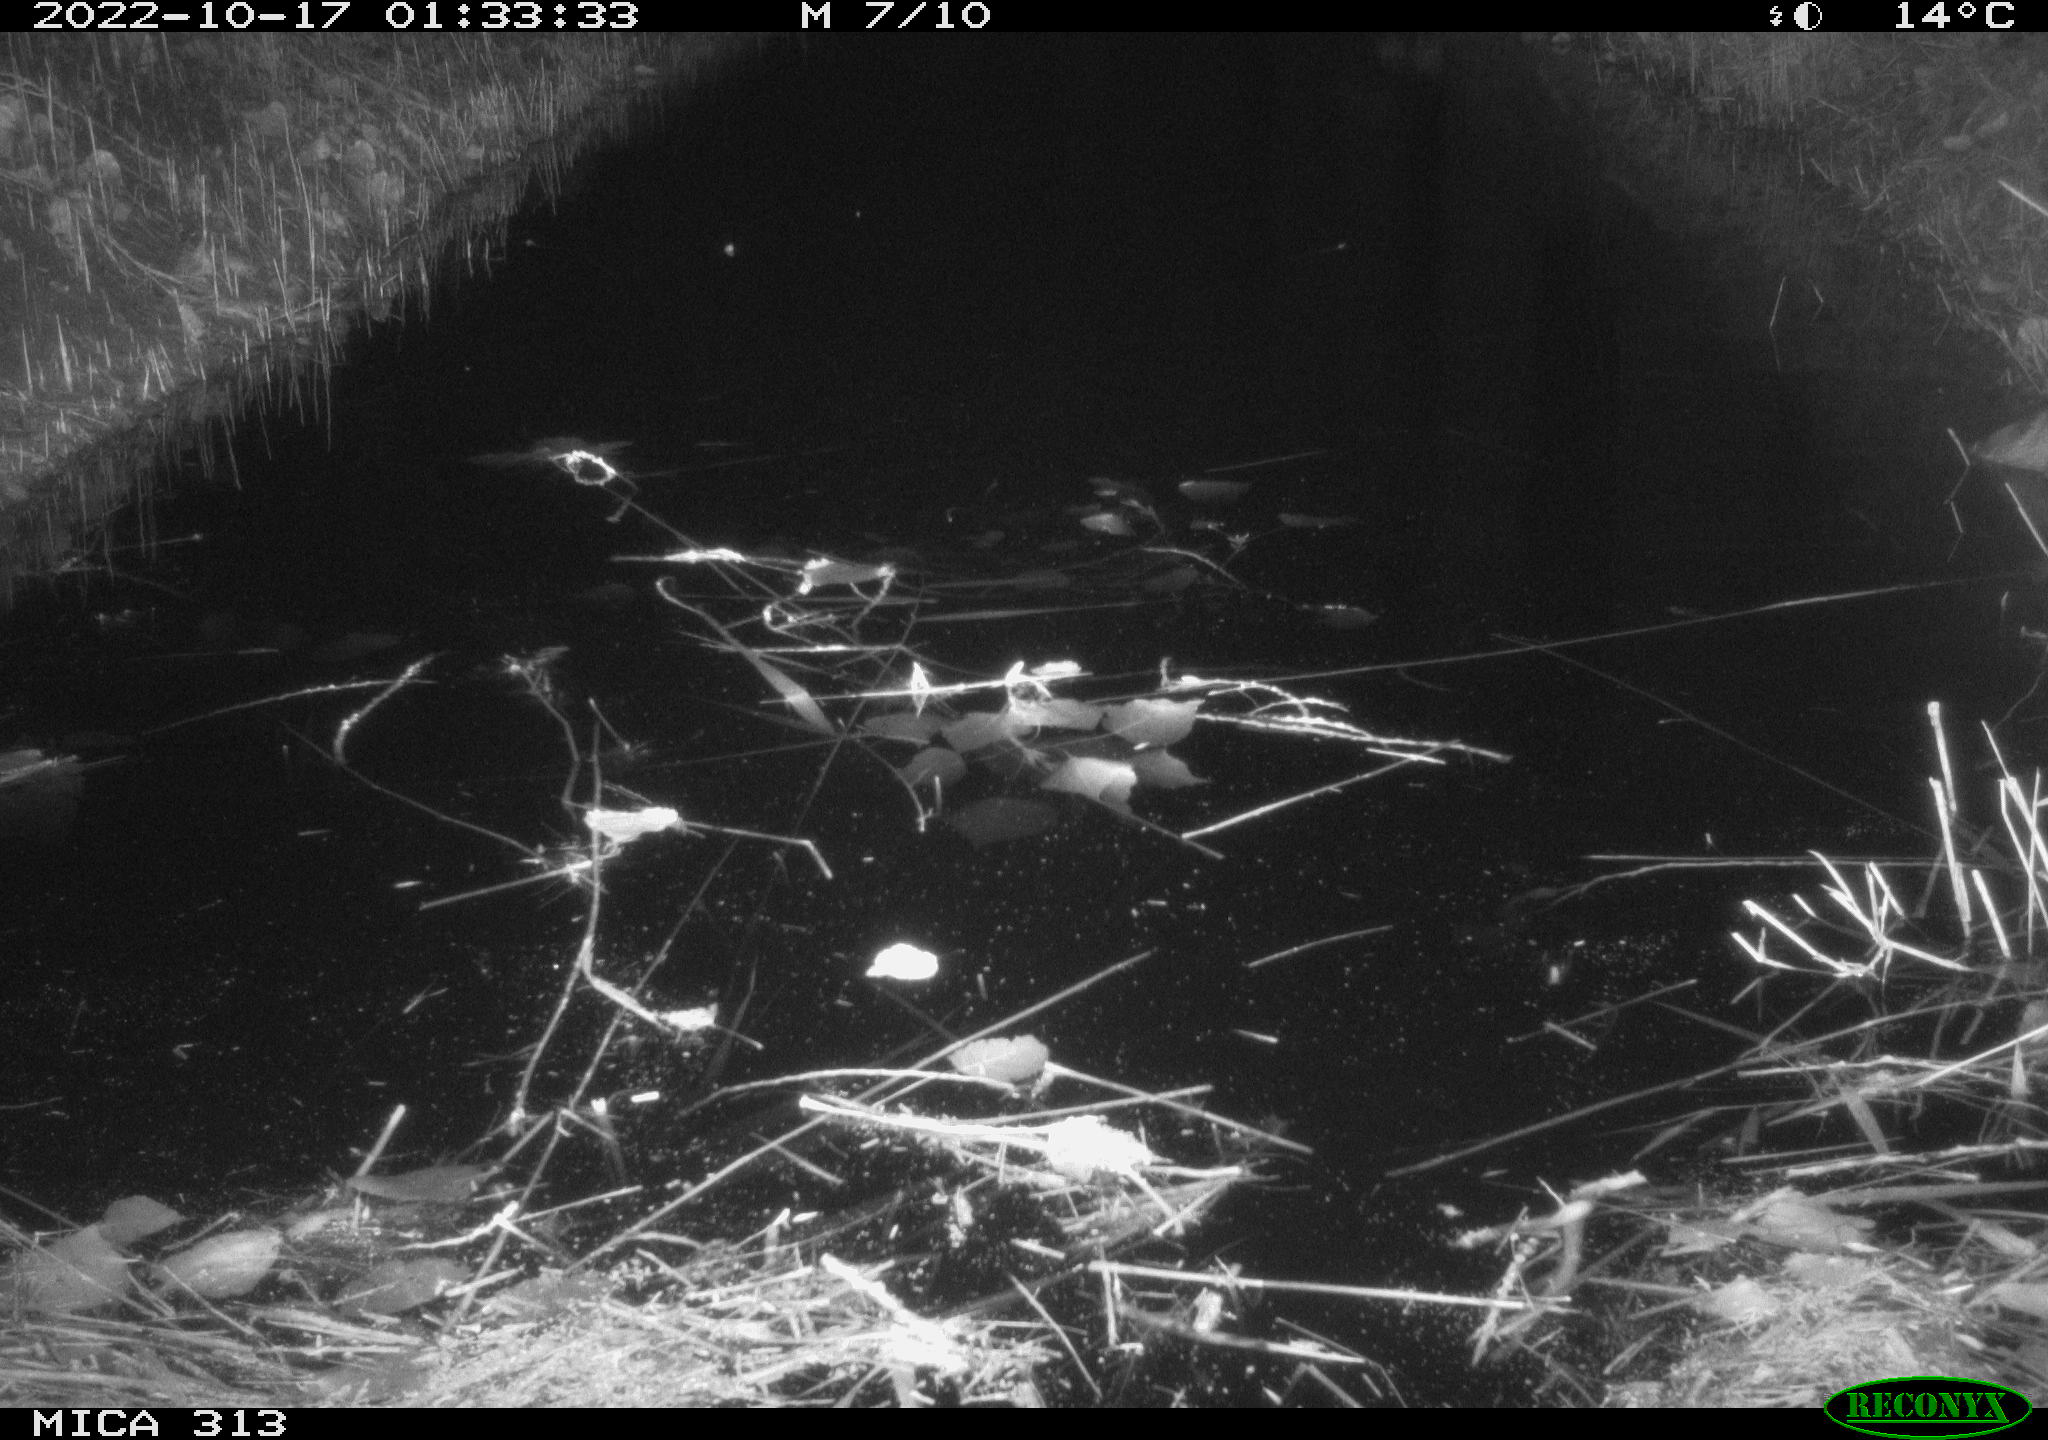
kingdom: Animalia
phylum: Chordata
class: Mammalia
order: Rodentia
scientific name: Rodentia
